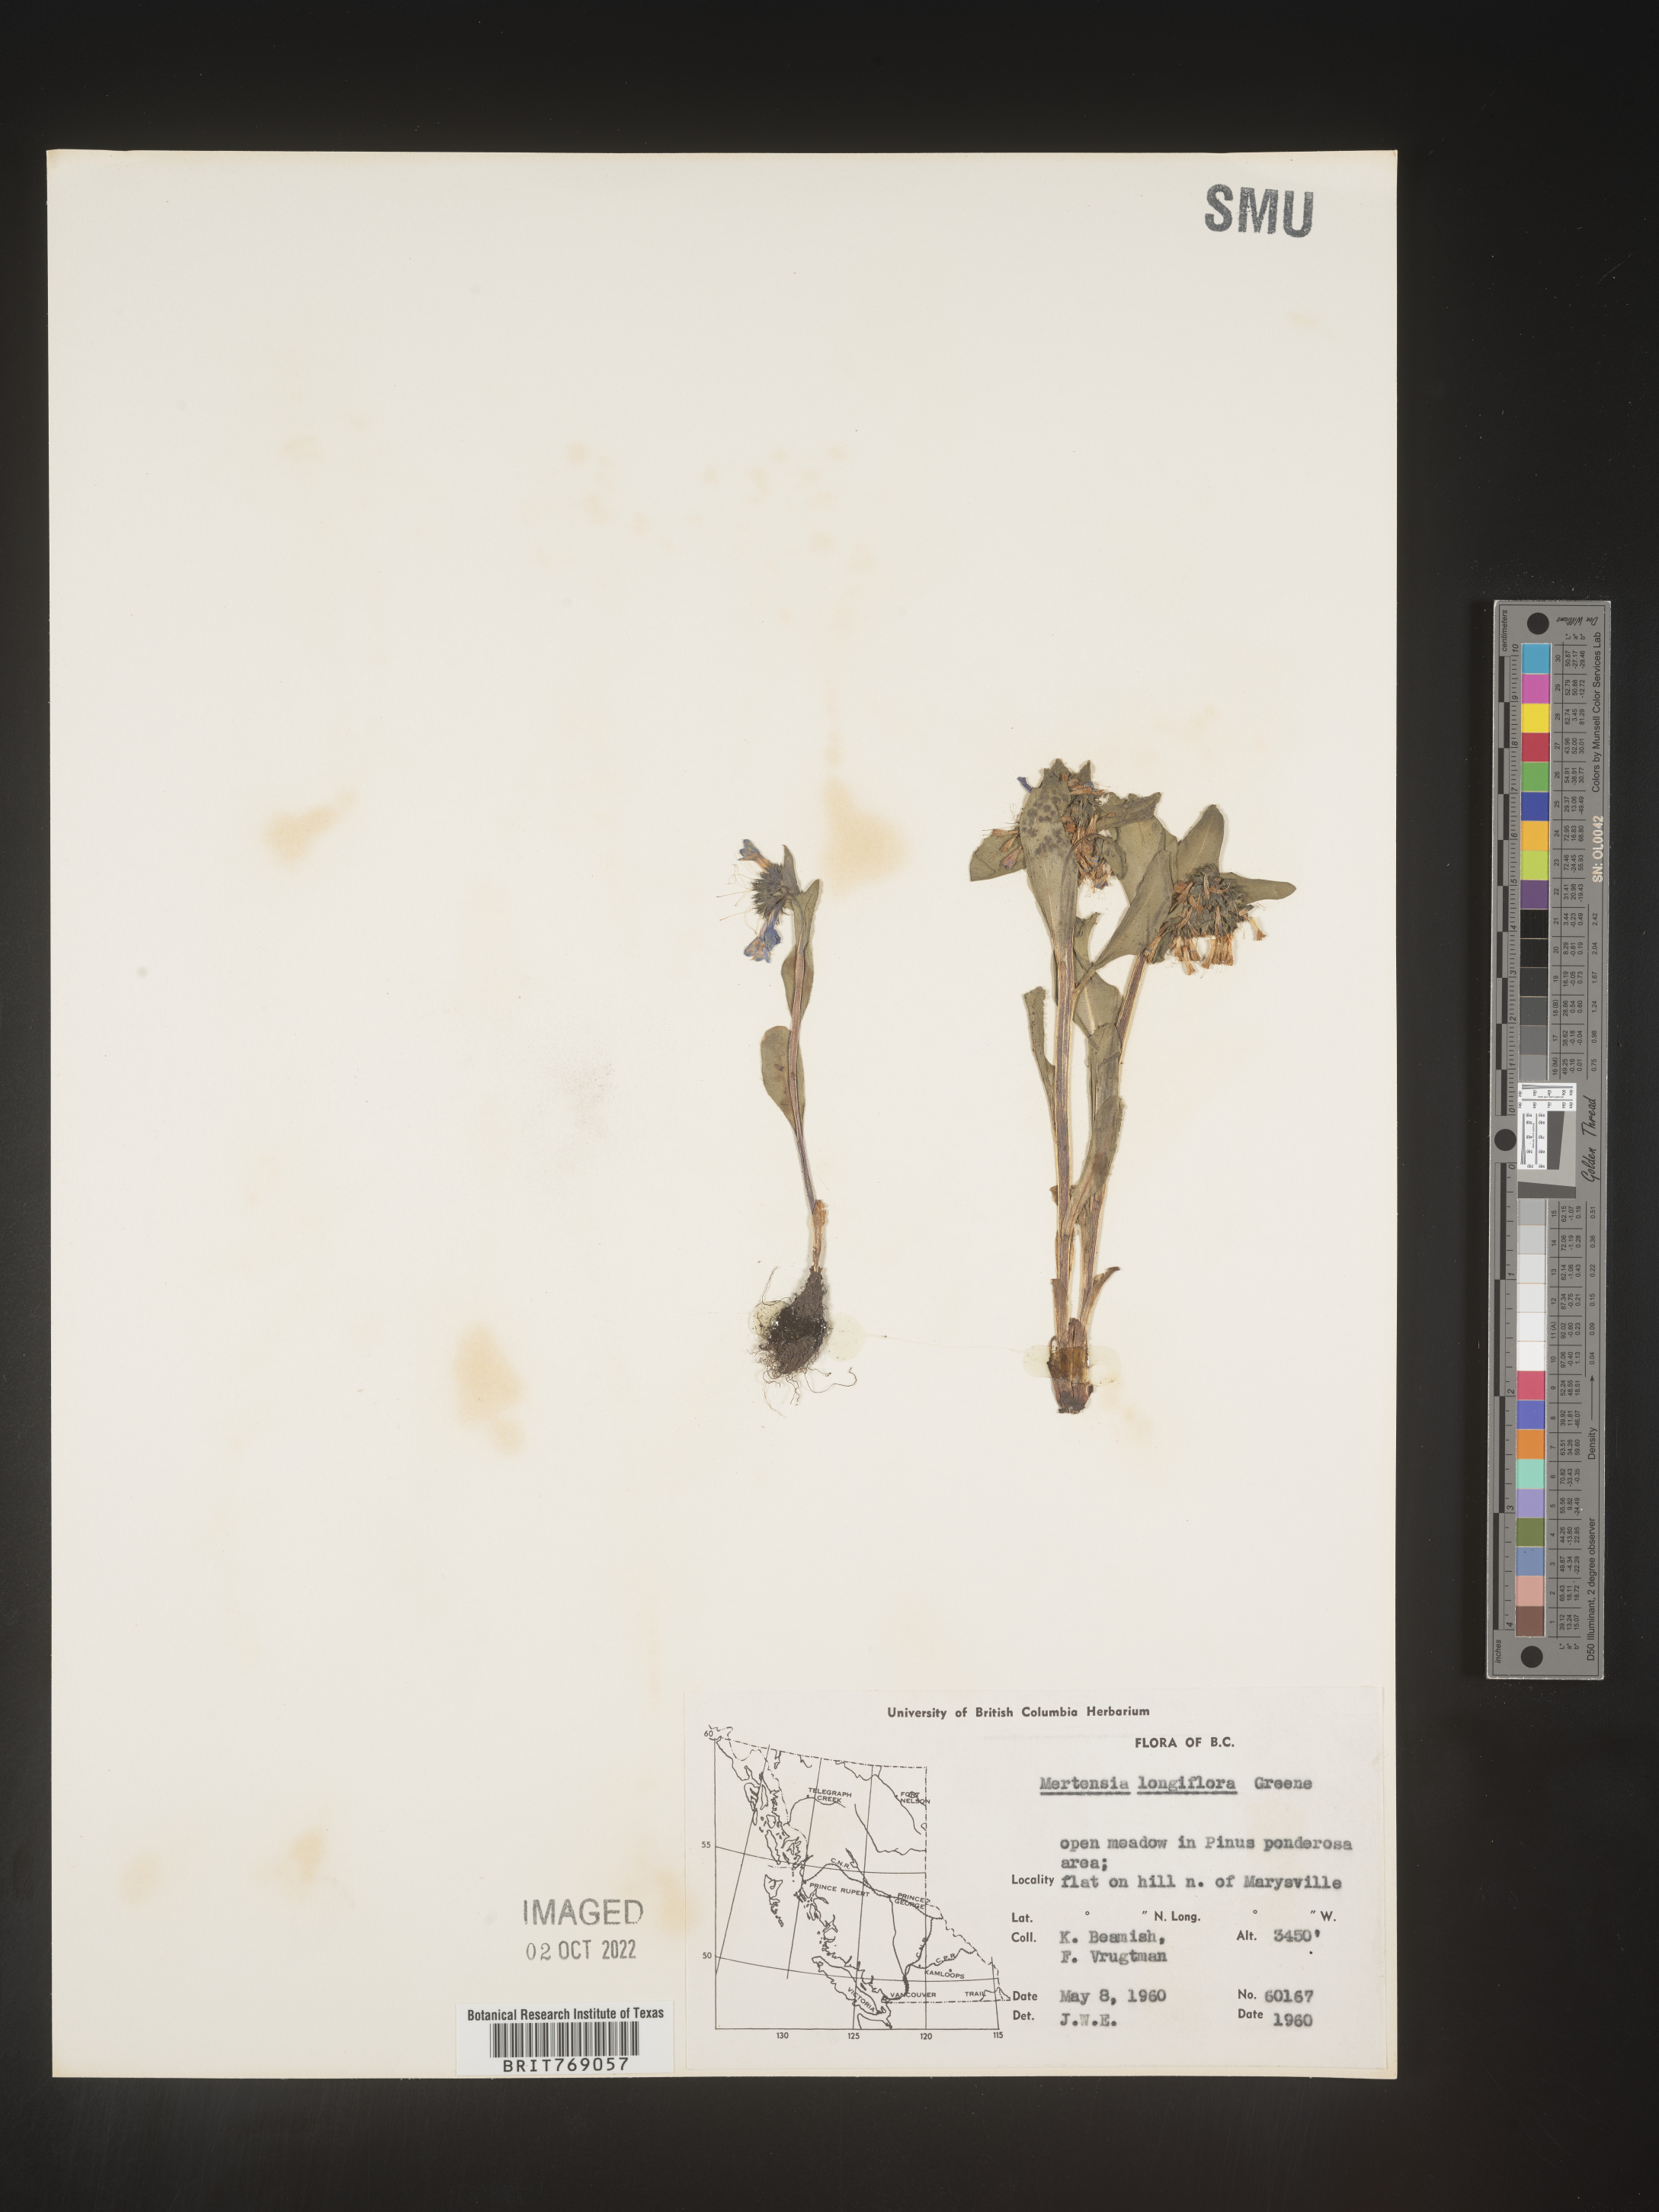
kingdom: Plantae
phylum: Tracheophyta
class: Magnoliopsida
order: Boraginales
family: Boraginaceae
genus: Mertensia
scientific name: Mertensia
